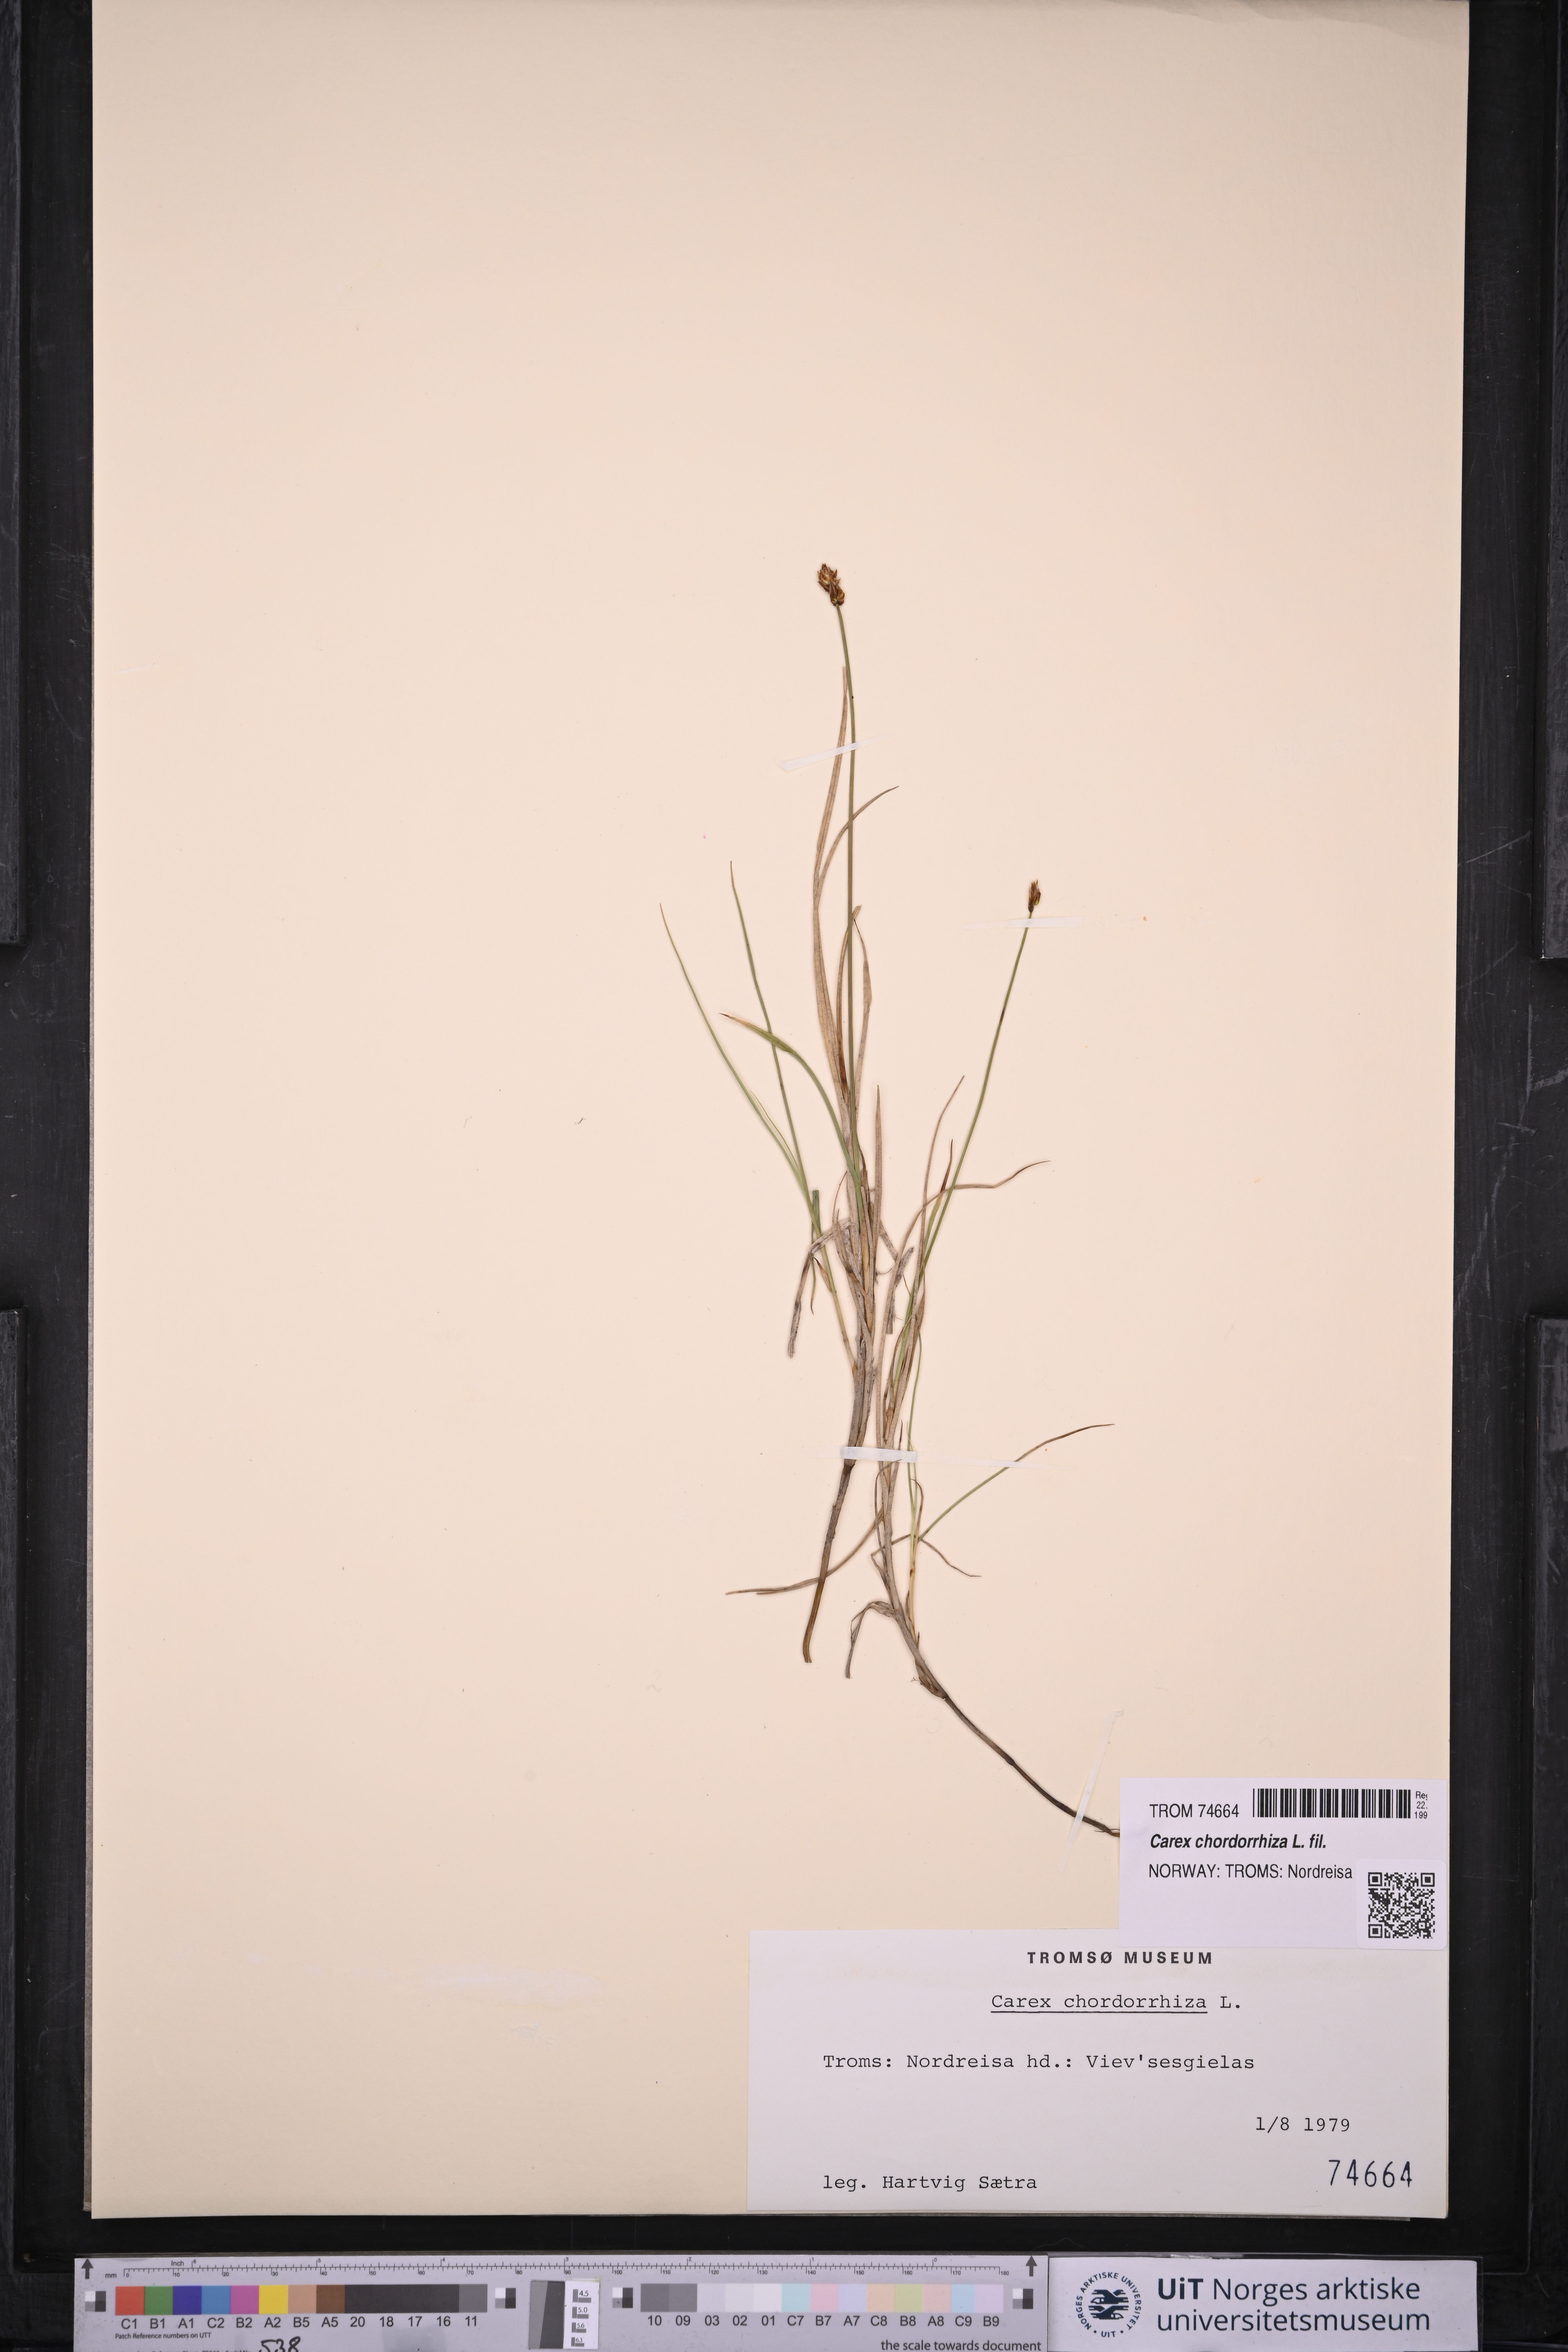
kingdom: Plantae
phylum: Tracheophyta
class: Liliopsida
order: Poales
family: Cyperaceae
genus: Carex
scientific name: Carex chordorrhiza
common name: String sedge
